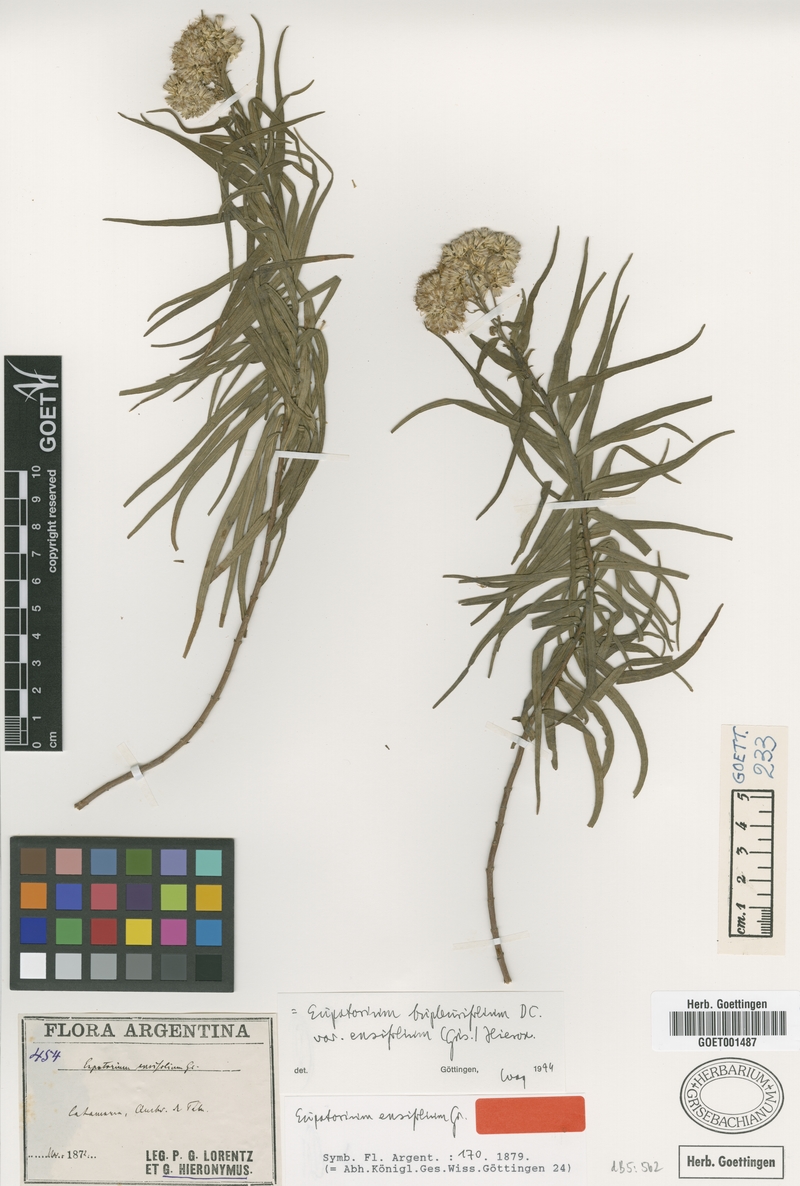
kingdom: Plantae
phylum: Tracheophyta
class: Magnoliopsida
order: Asterales
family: Asteraceae
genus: Campovassouria
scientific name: Campovassouria cruciata
